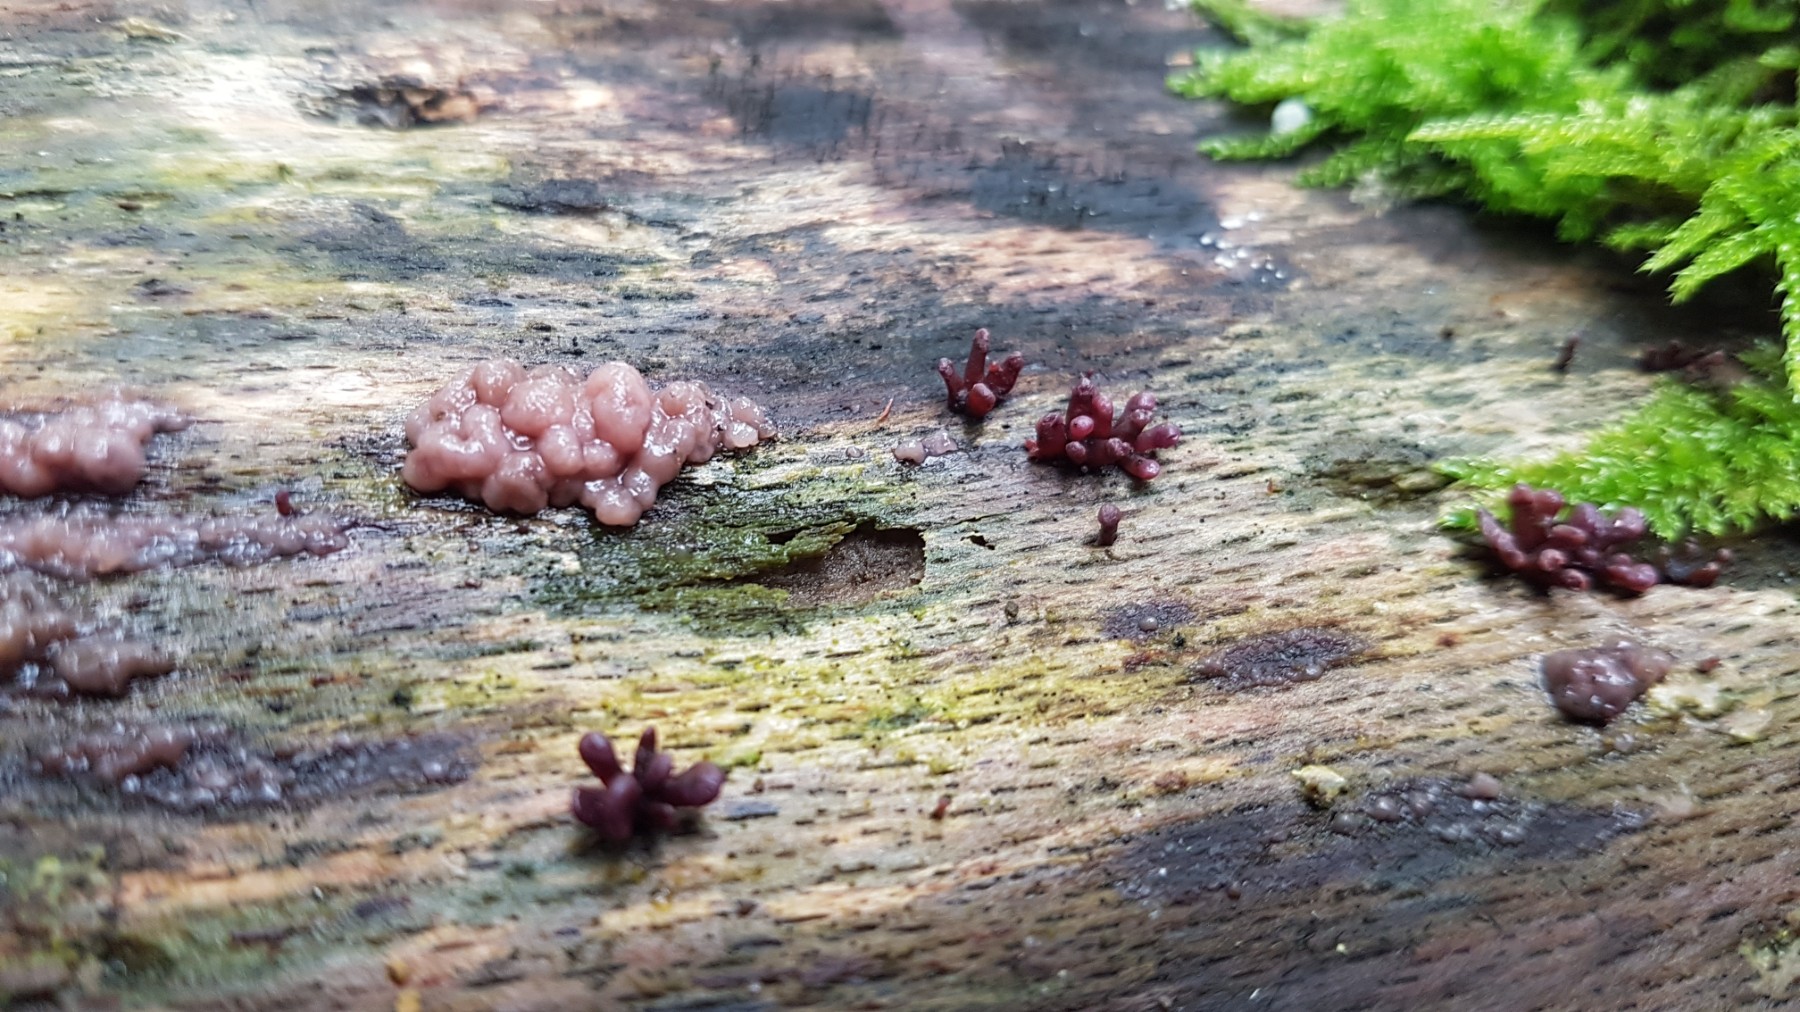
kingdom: Fungi
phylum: Ascomycota
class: Leotiomycetes
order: Helotiales
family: Gelatinodiscaceae
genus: Ascocoryne
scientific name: Ascocoryne sarcoides
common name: rødlilla sejskive
